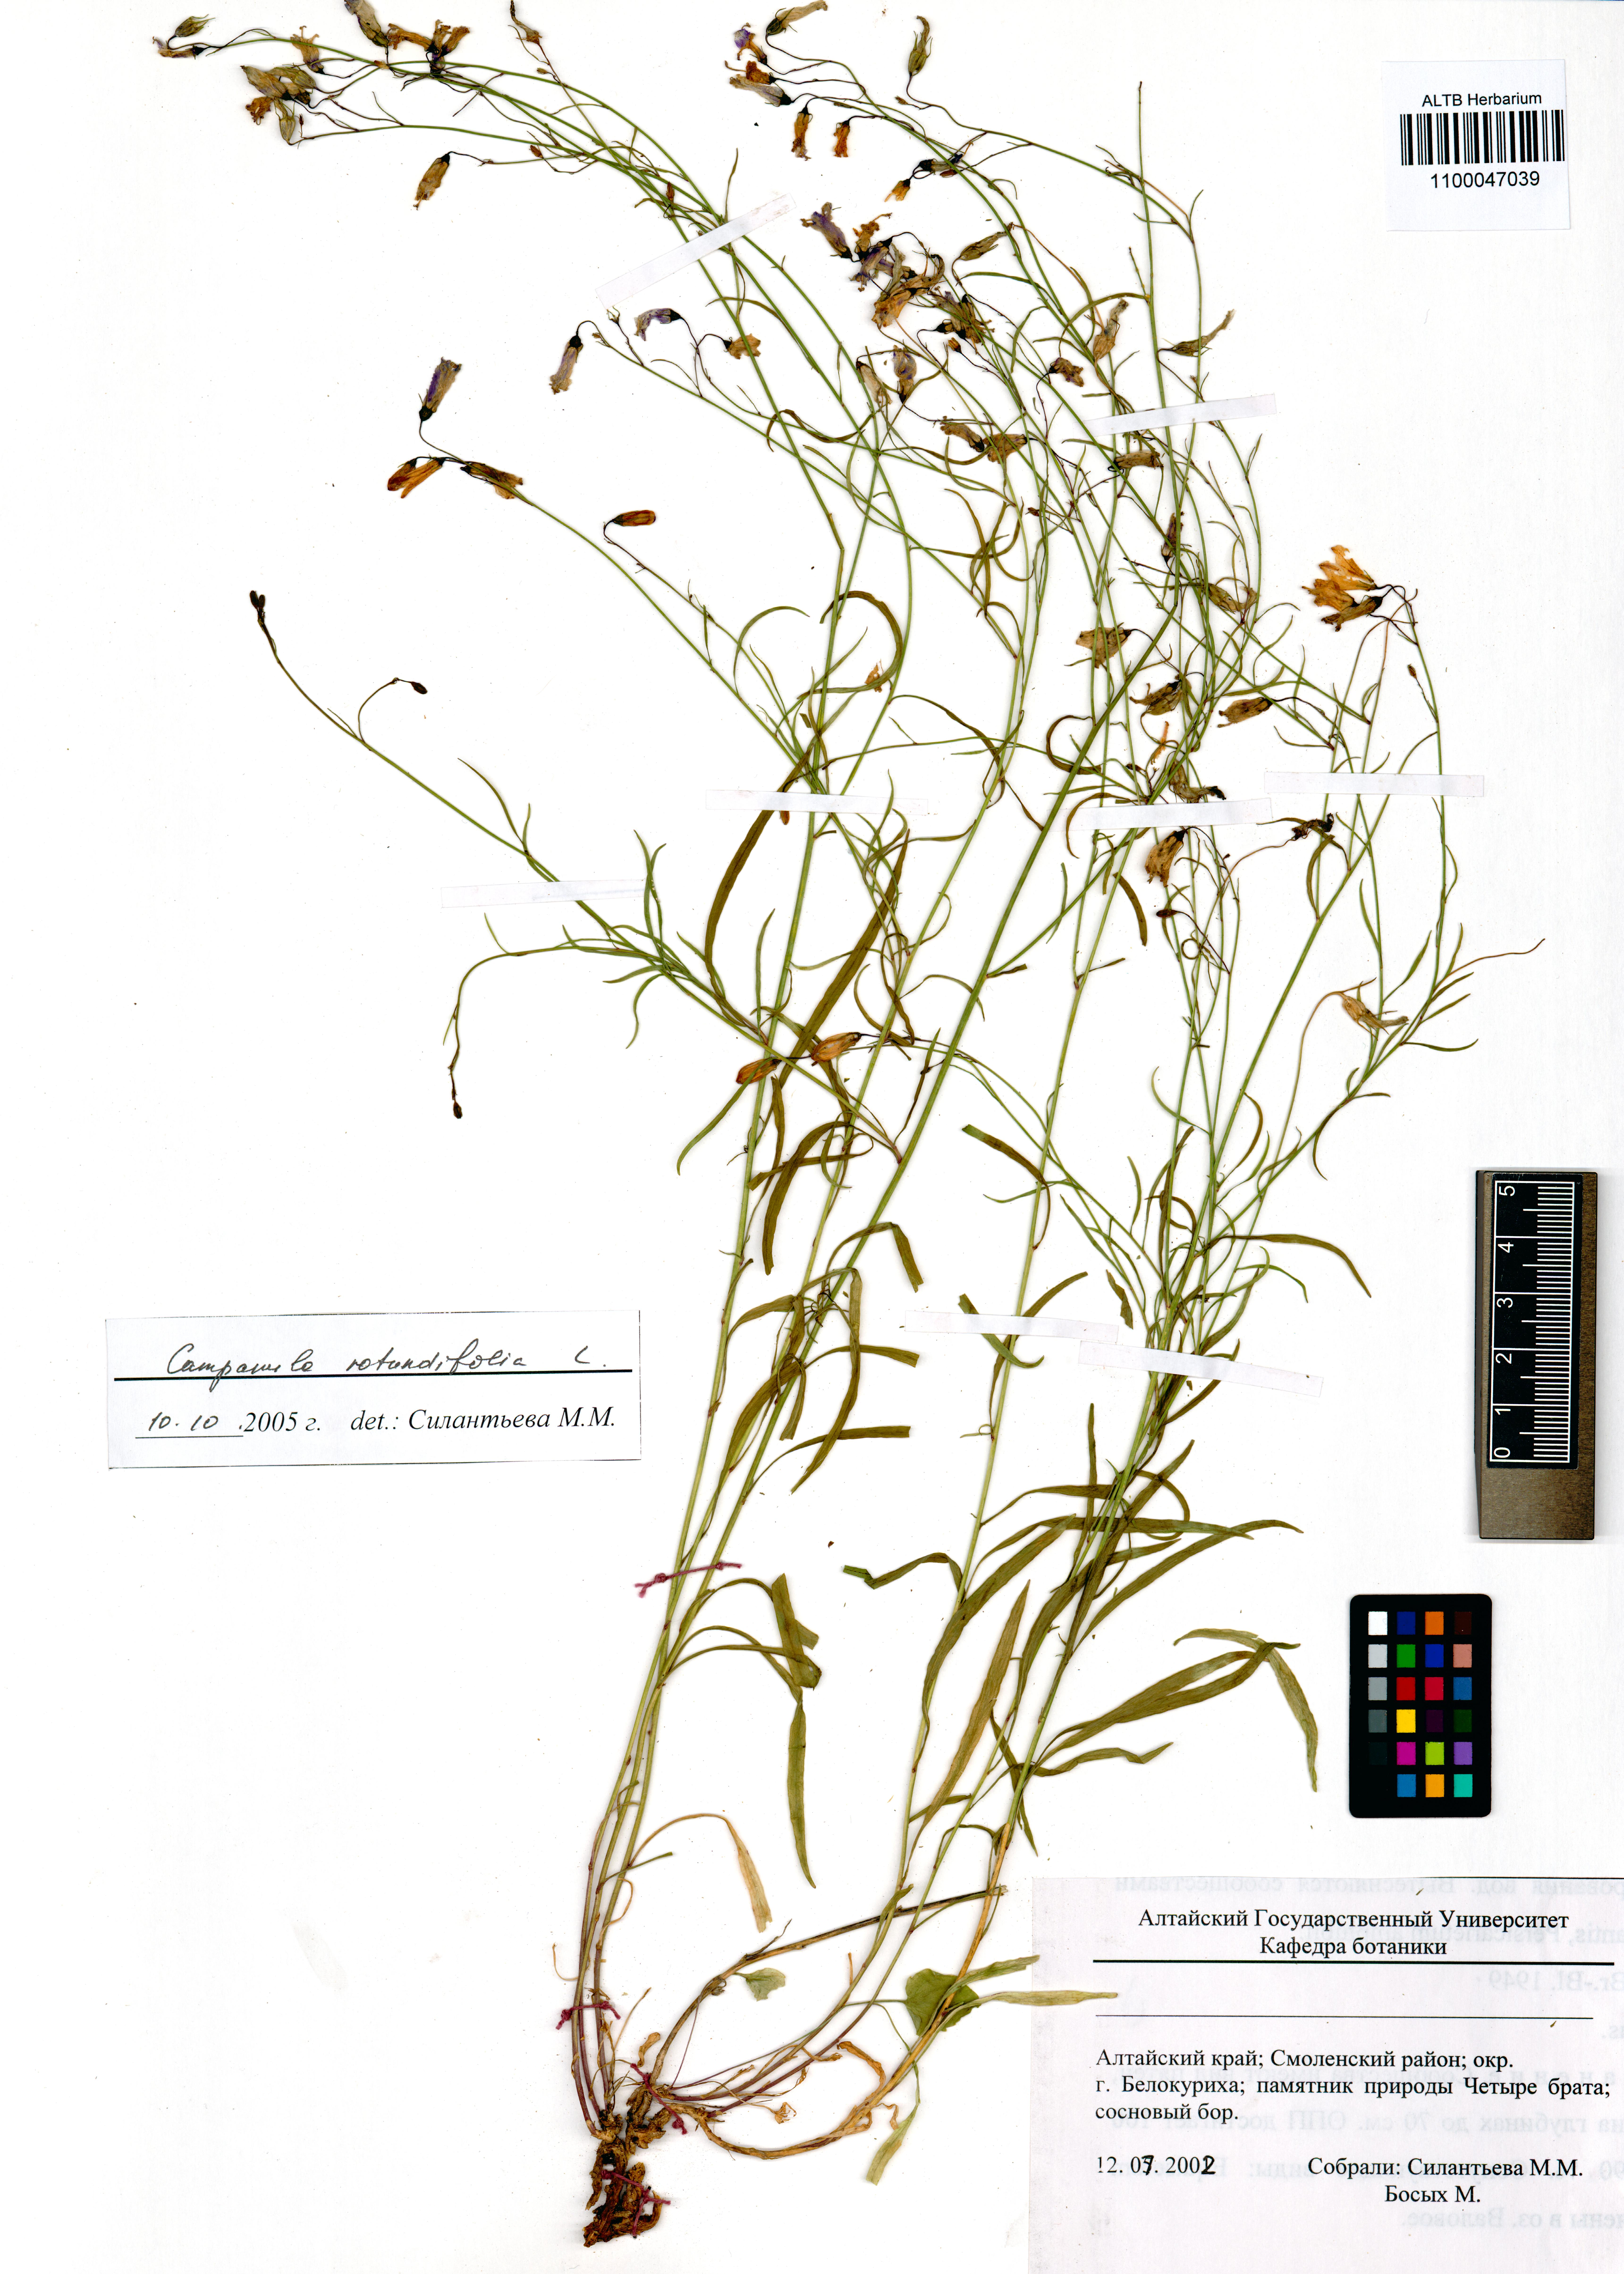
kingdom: Plantae
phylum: Tracheophyta
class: Magnoliopsida
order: Asterales
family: Campanulaceae
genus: Campanula
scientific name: Campanula rotundifolia
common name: Harebell
